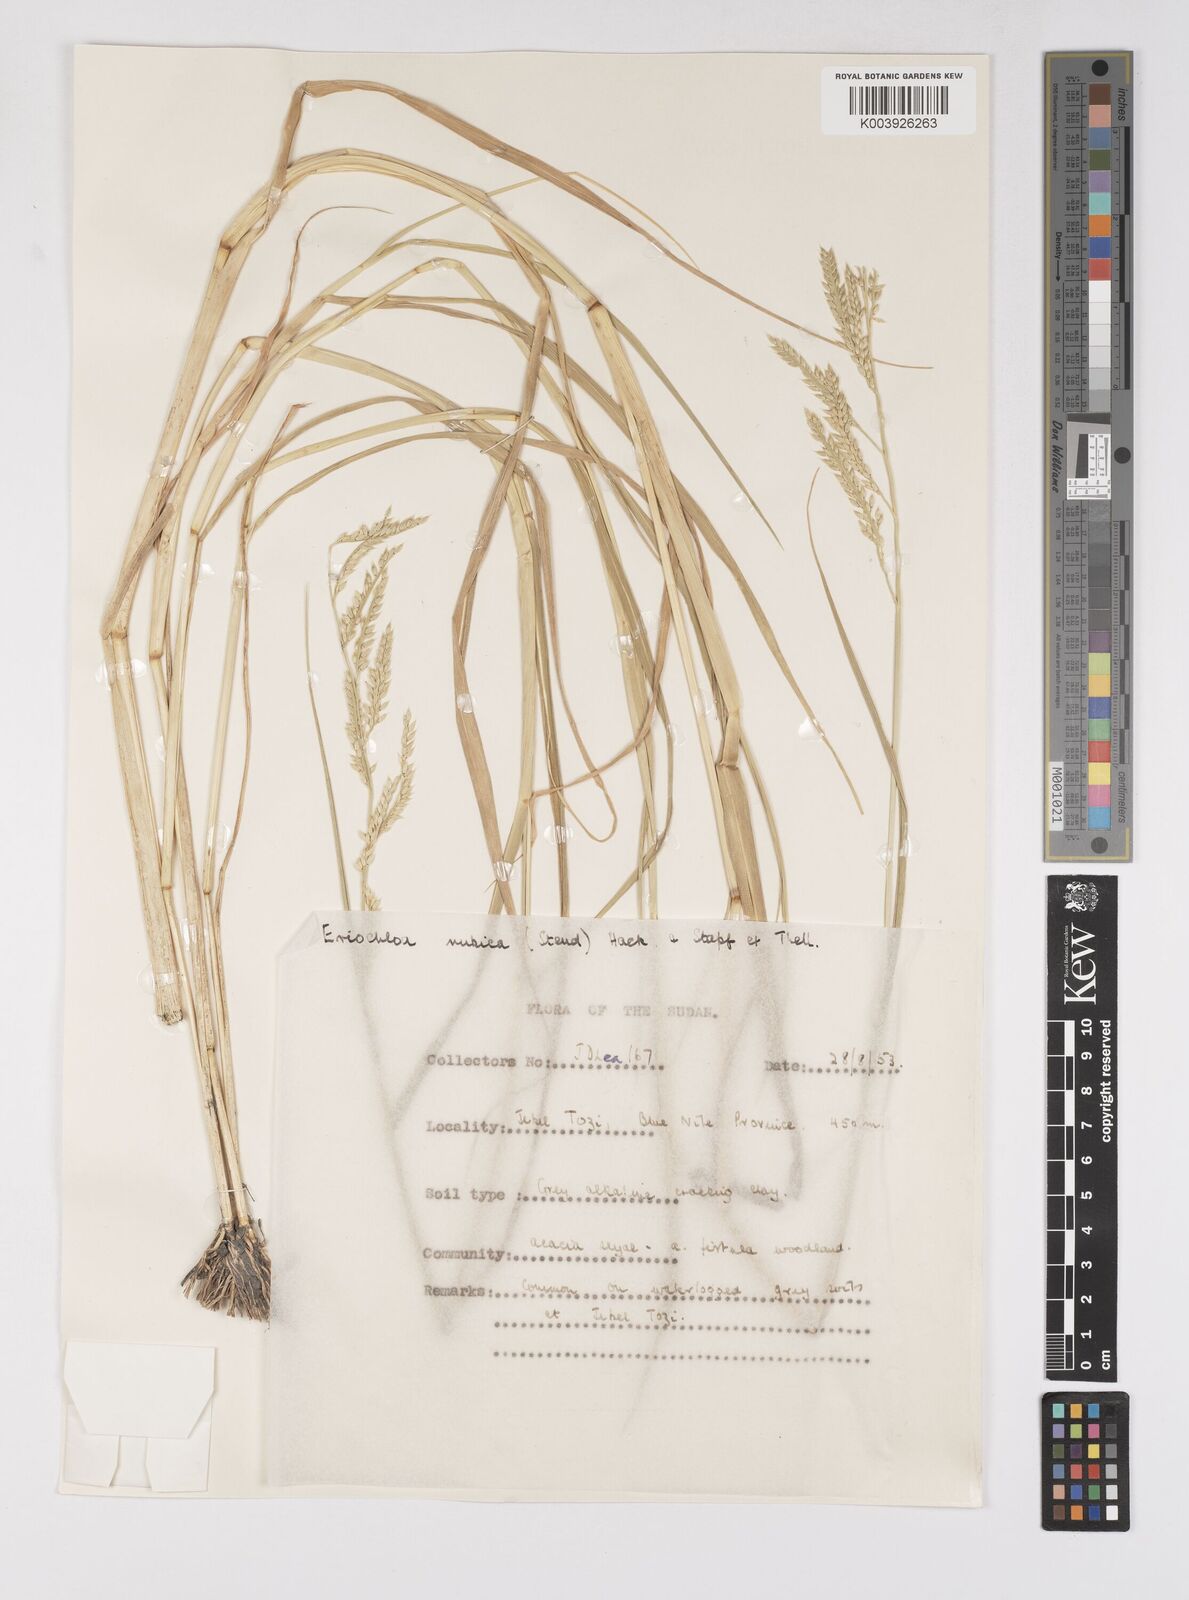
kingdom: Plantae
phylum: Tracheophyta
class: Liliopsida
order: Poales
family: Poaceae
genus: Eriochloa
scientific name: Eriochloa barbatus
